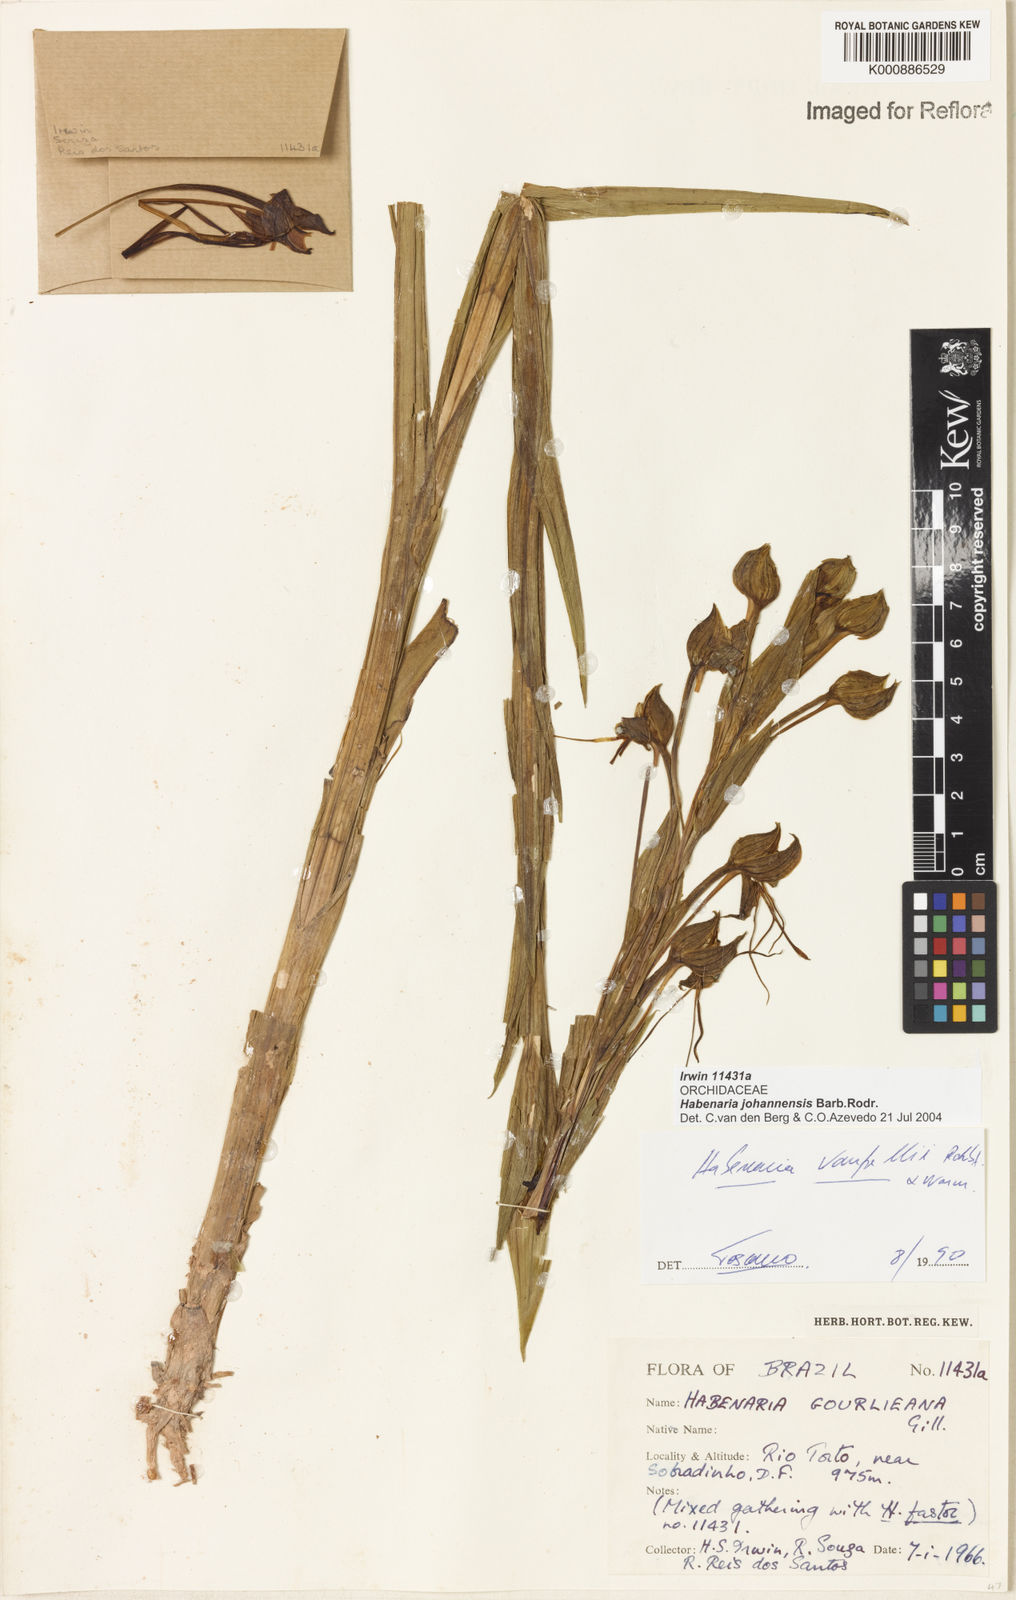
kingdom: Plantae
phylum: Tracheophyta
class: Liliopsida
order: Asparagales
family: Orchidaceae
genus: Habenaria
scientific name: Habenaria johannensis
